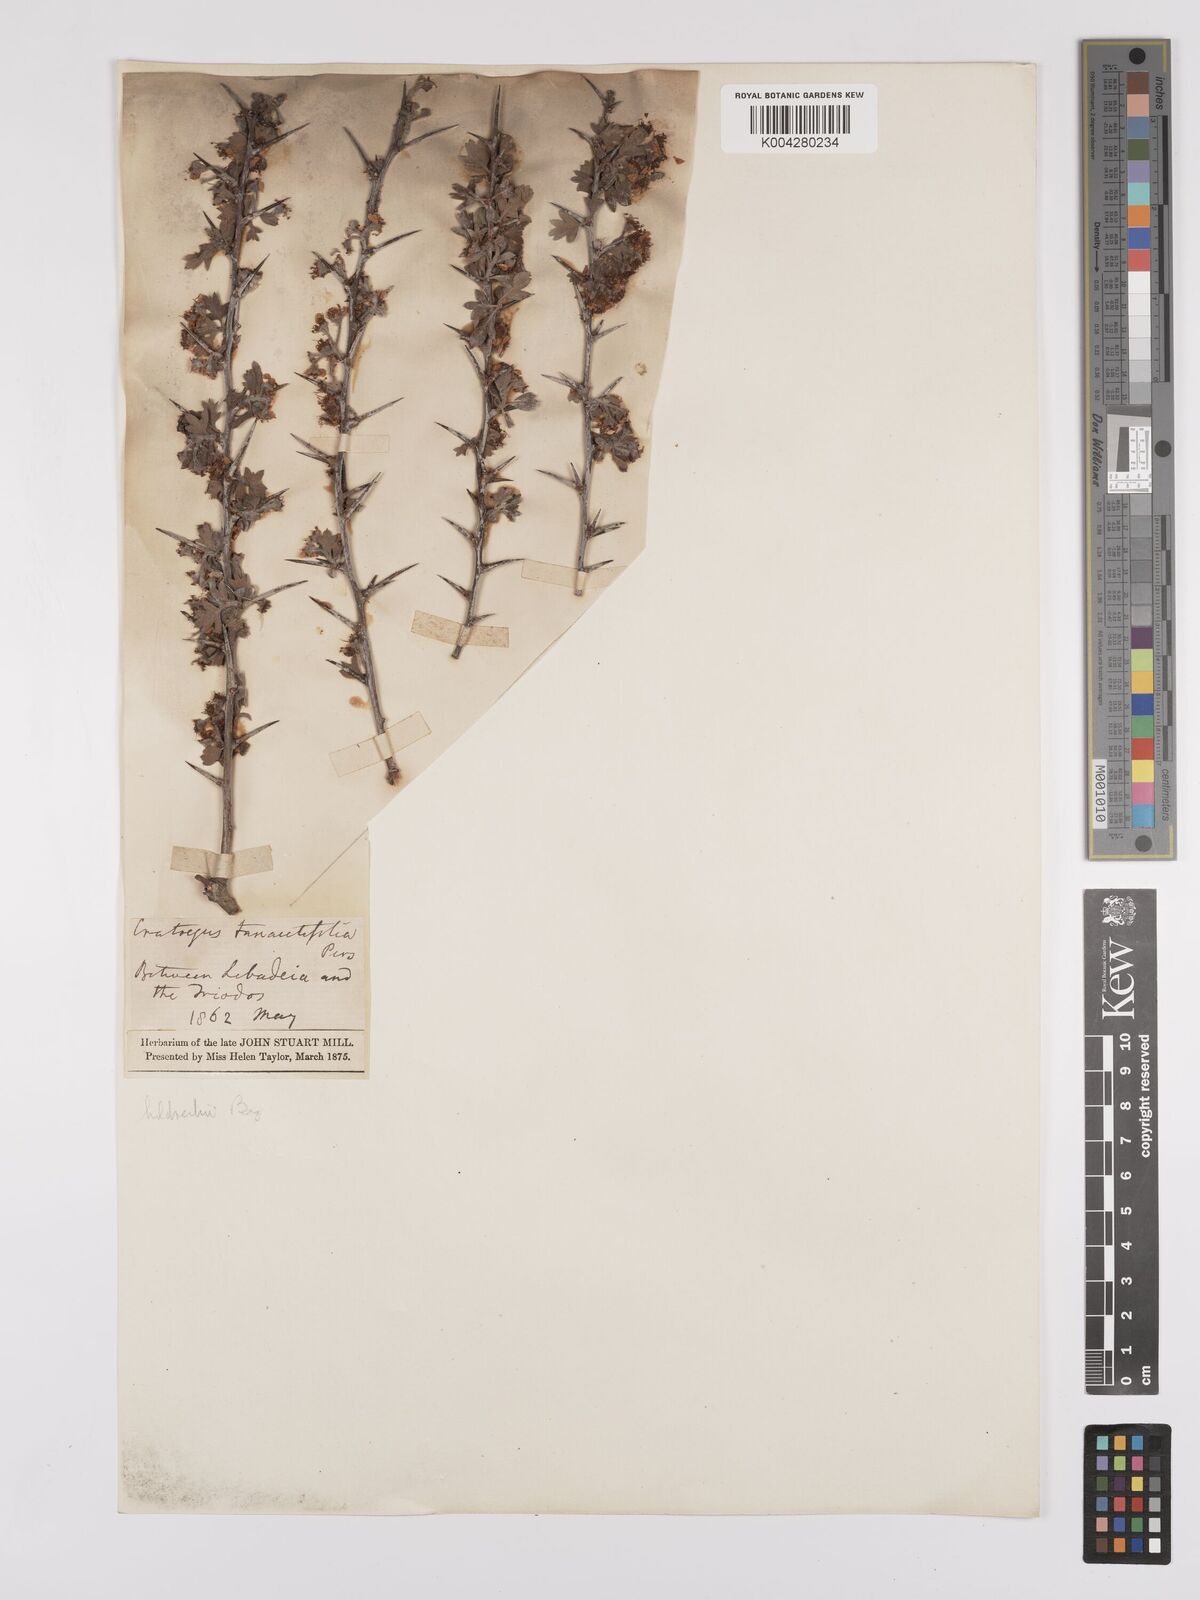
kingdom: Plantae
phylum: Tracheophyta
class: Magnoliopsida
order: Rosales
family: Rosaceae
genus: Crataegus
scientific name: Crataegus heldreichii
